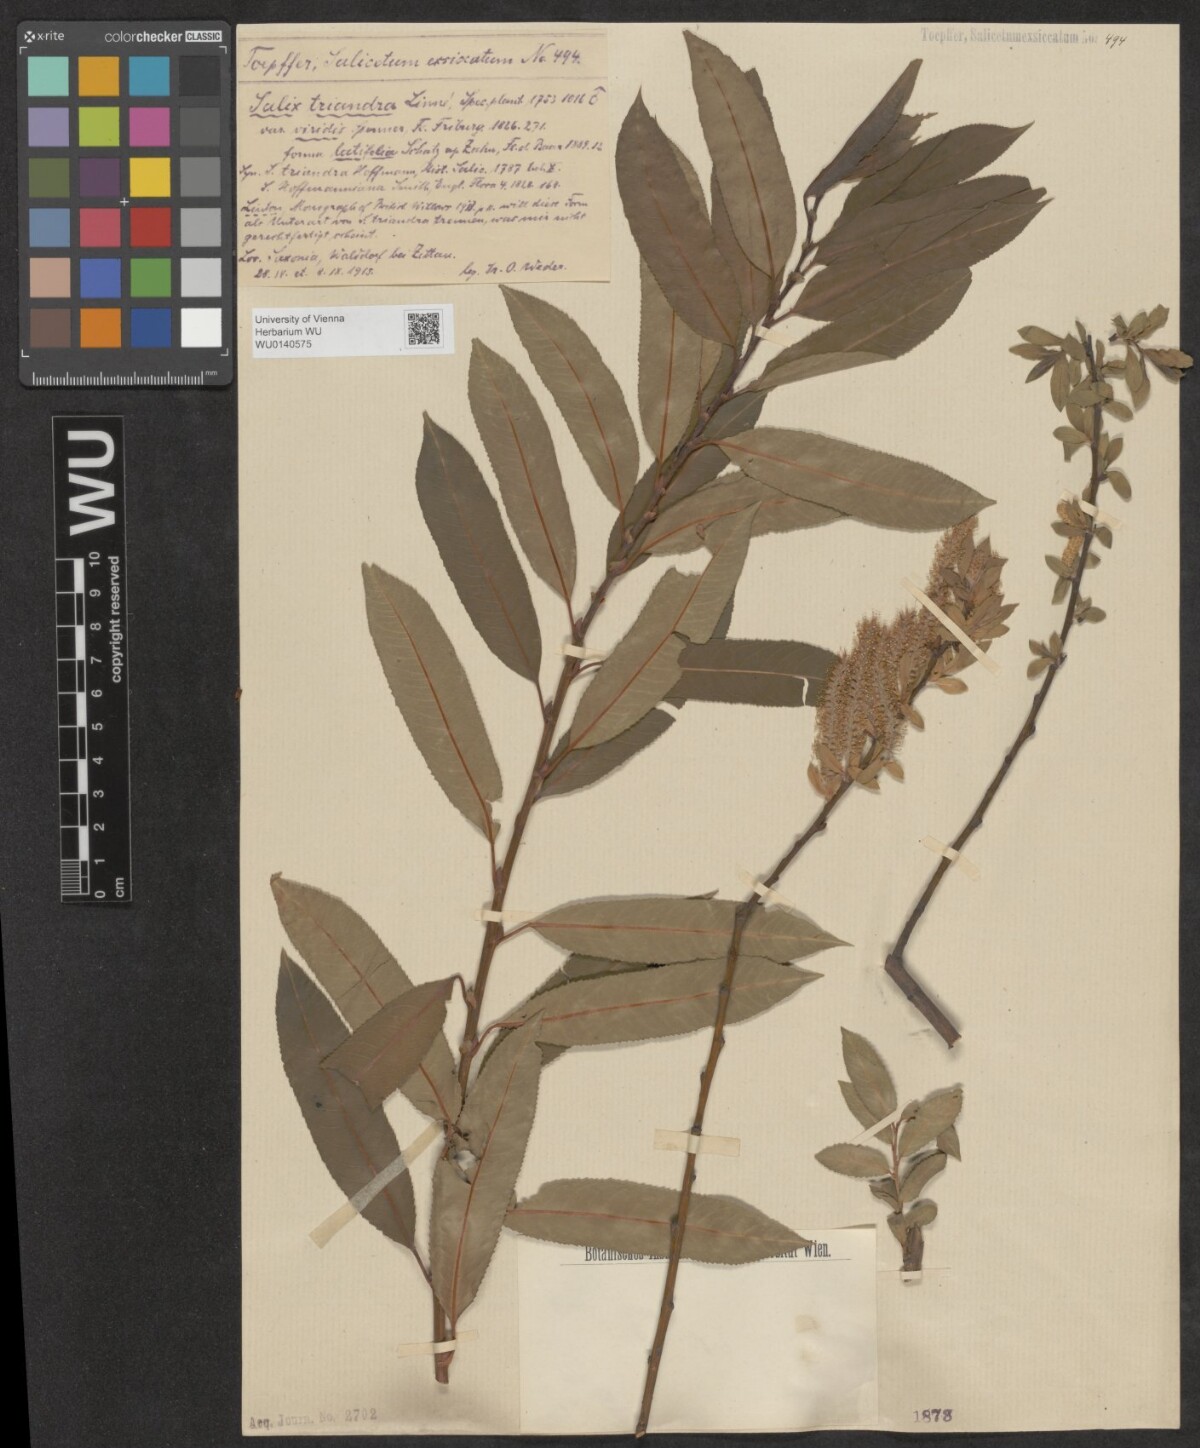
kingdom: Plantae
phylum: Tracheophyta
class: Magnoliopsida
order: Malpighiales
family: Salicaceae
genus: Salix
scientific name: Salix triandra
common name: Almond willow
